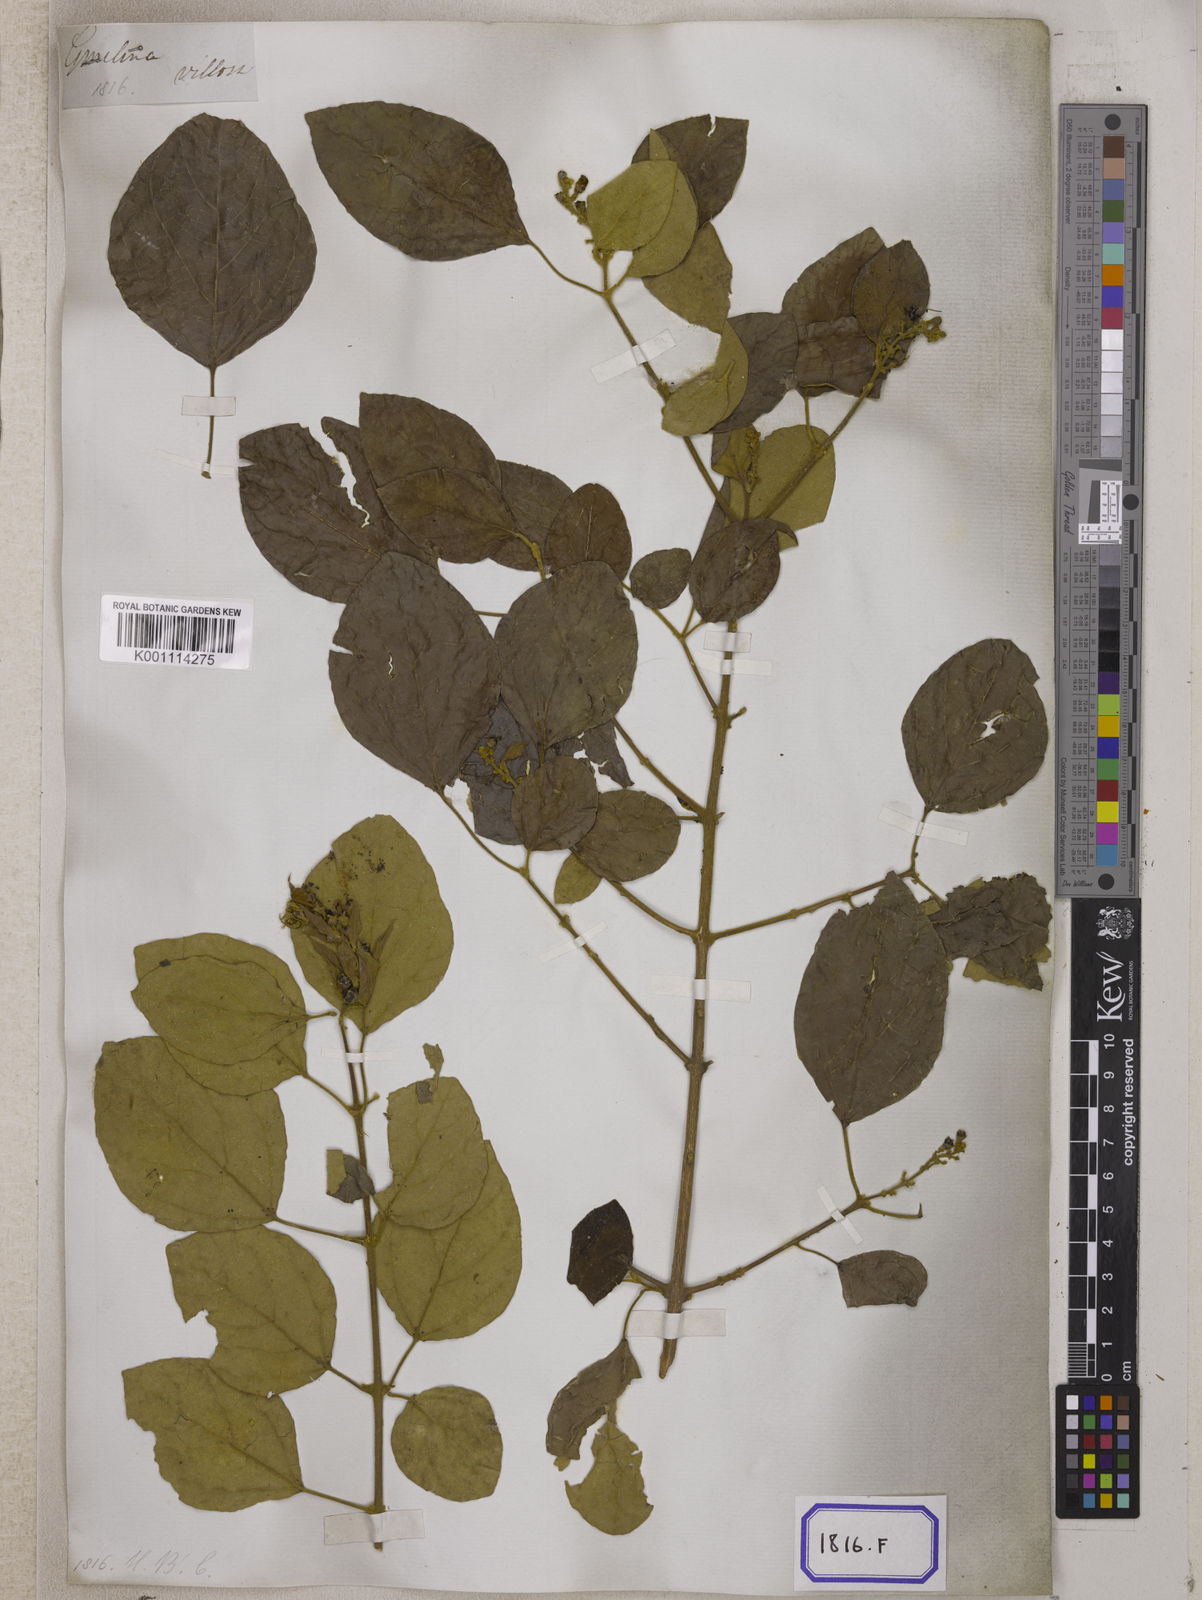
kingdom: Plantae
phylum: Tracheophyta
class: Magnoliopsida
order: Lamiales
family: Lamiaceae
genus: Gmelina
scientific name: Gmelina elliptica
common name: Badhara-bush
